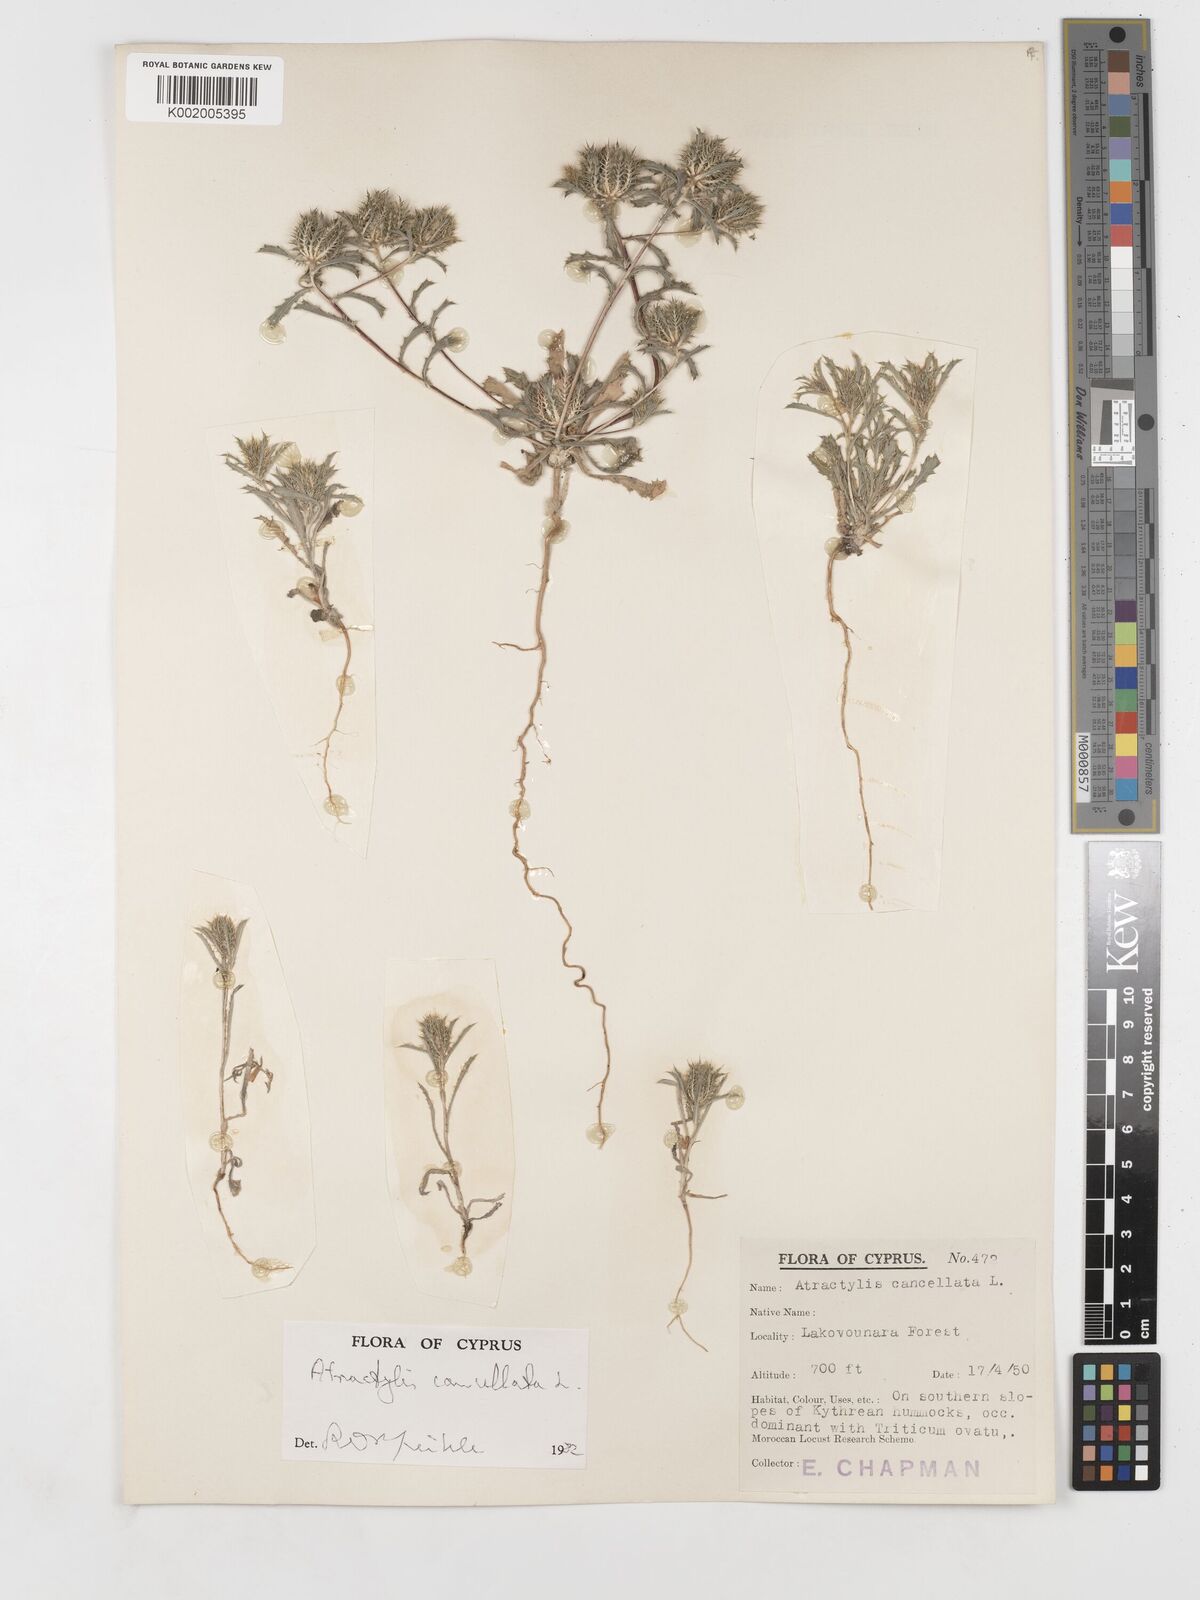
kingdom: Plantae
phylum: Tracheophyta
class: Magnoliopsida
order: Asterales
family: Asteraceae
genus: Atractylis
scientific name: Atractylis cancellata
